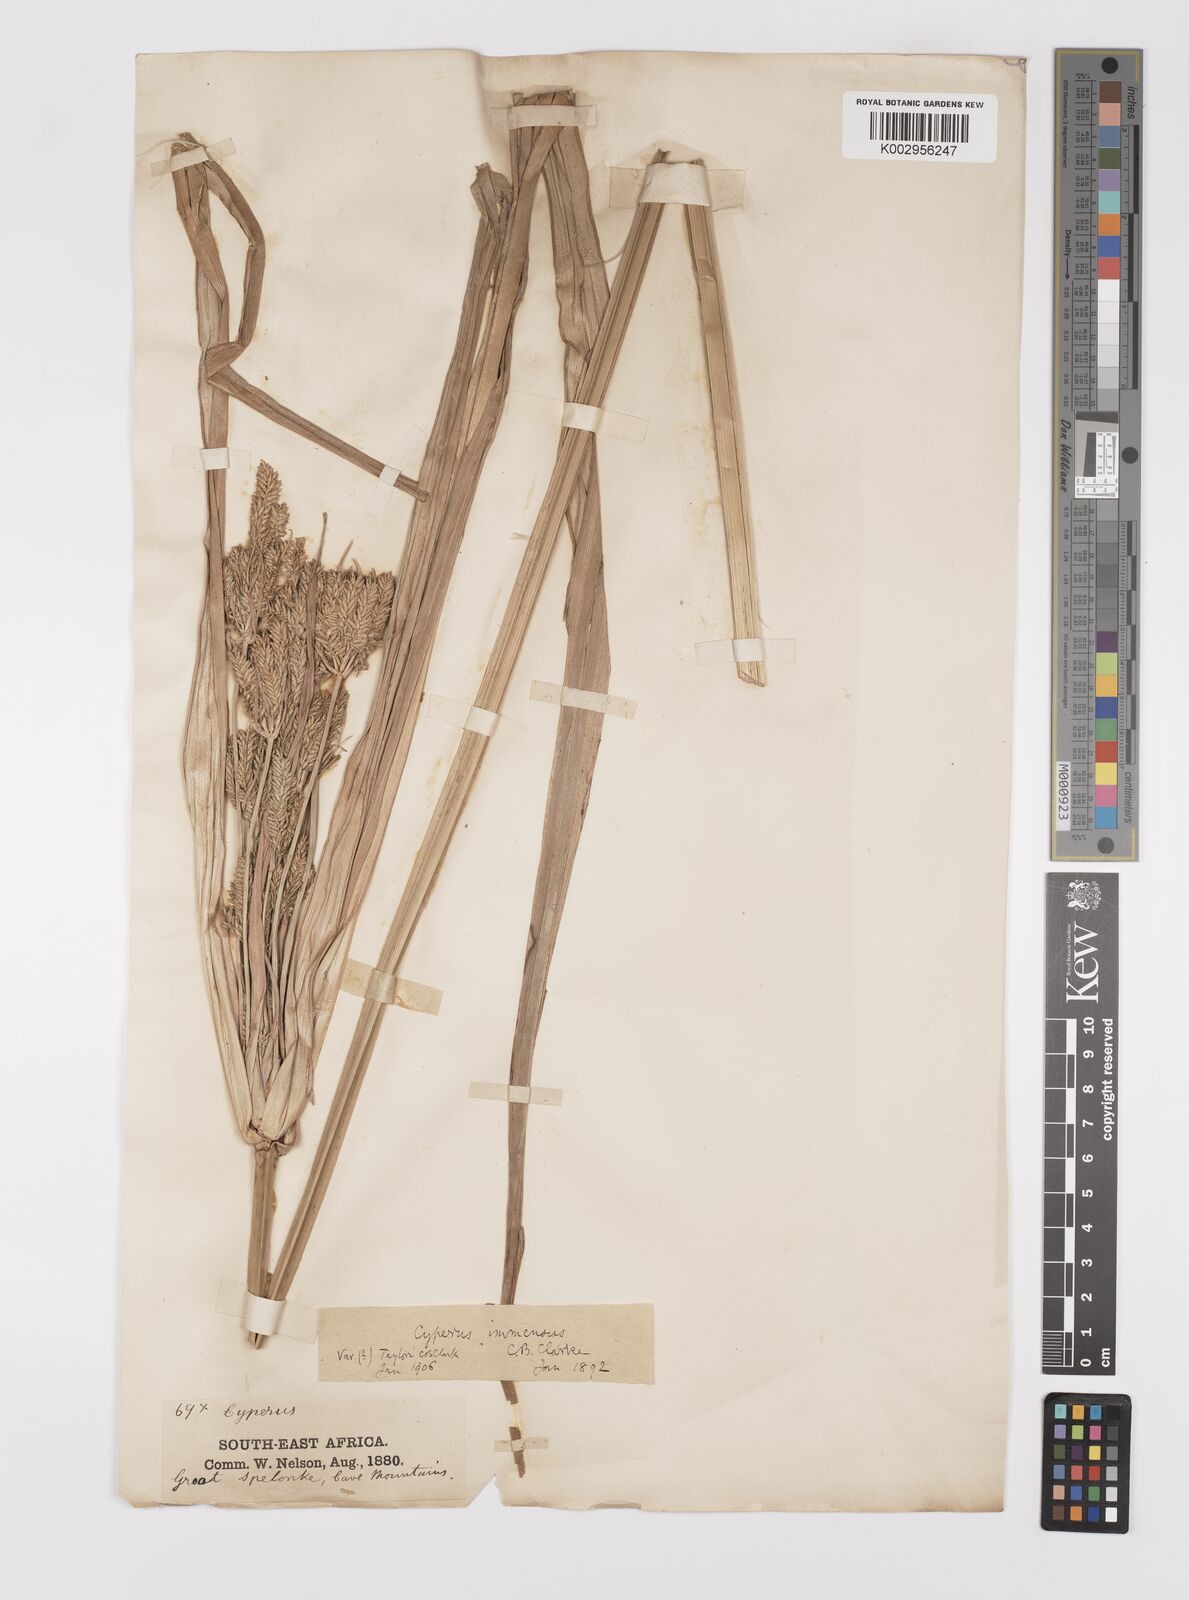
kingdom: Plantae
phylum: Tracheophyta
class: Liliopsida
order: Poales
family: Cyperaceae
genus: Cyperus
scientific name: Cyperus dives
